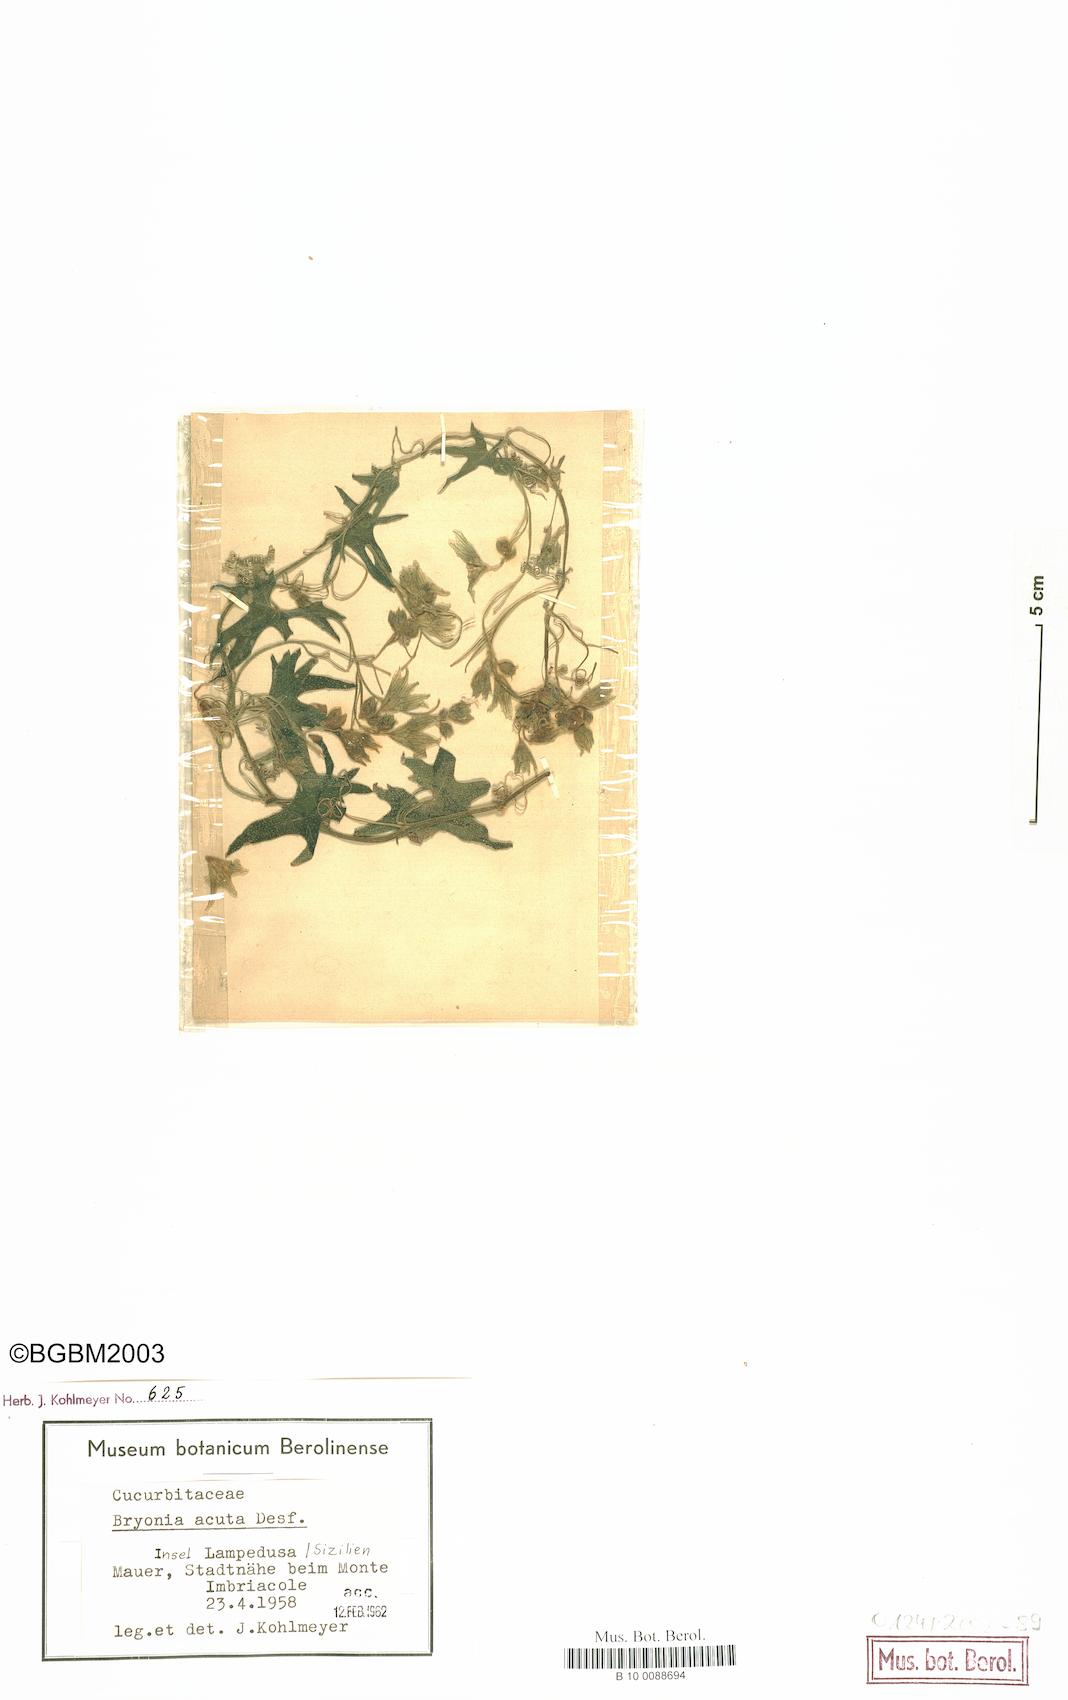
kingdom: Plantae
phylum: Tracheophyta
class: Magnoliopsida
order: Cucurbitales
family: Cucurbitaceae
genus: Bryonia
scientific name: Bryonia acutangula
